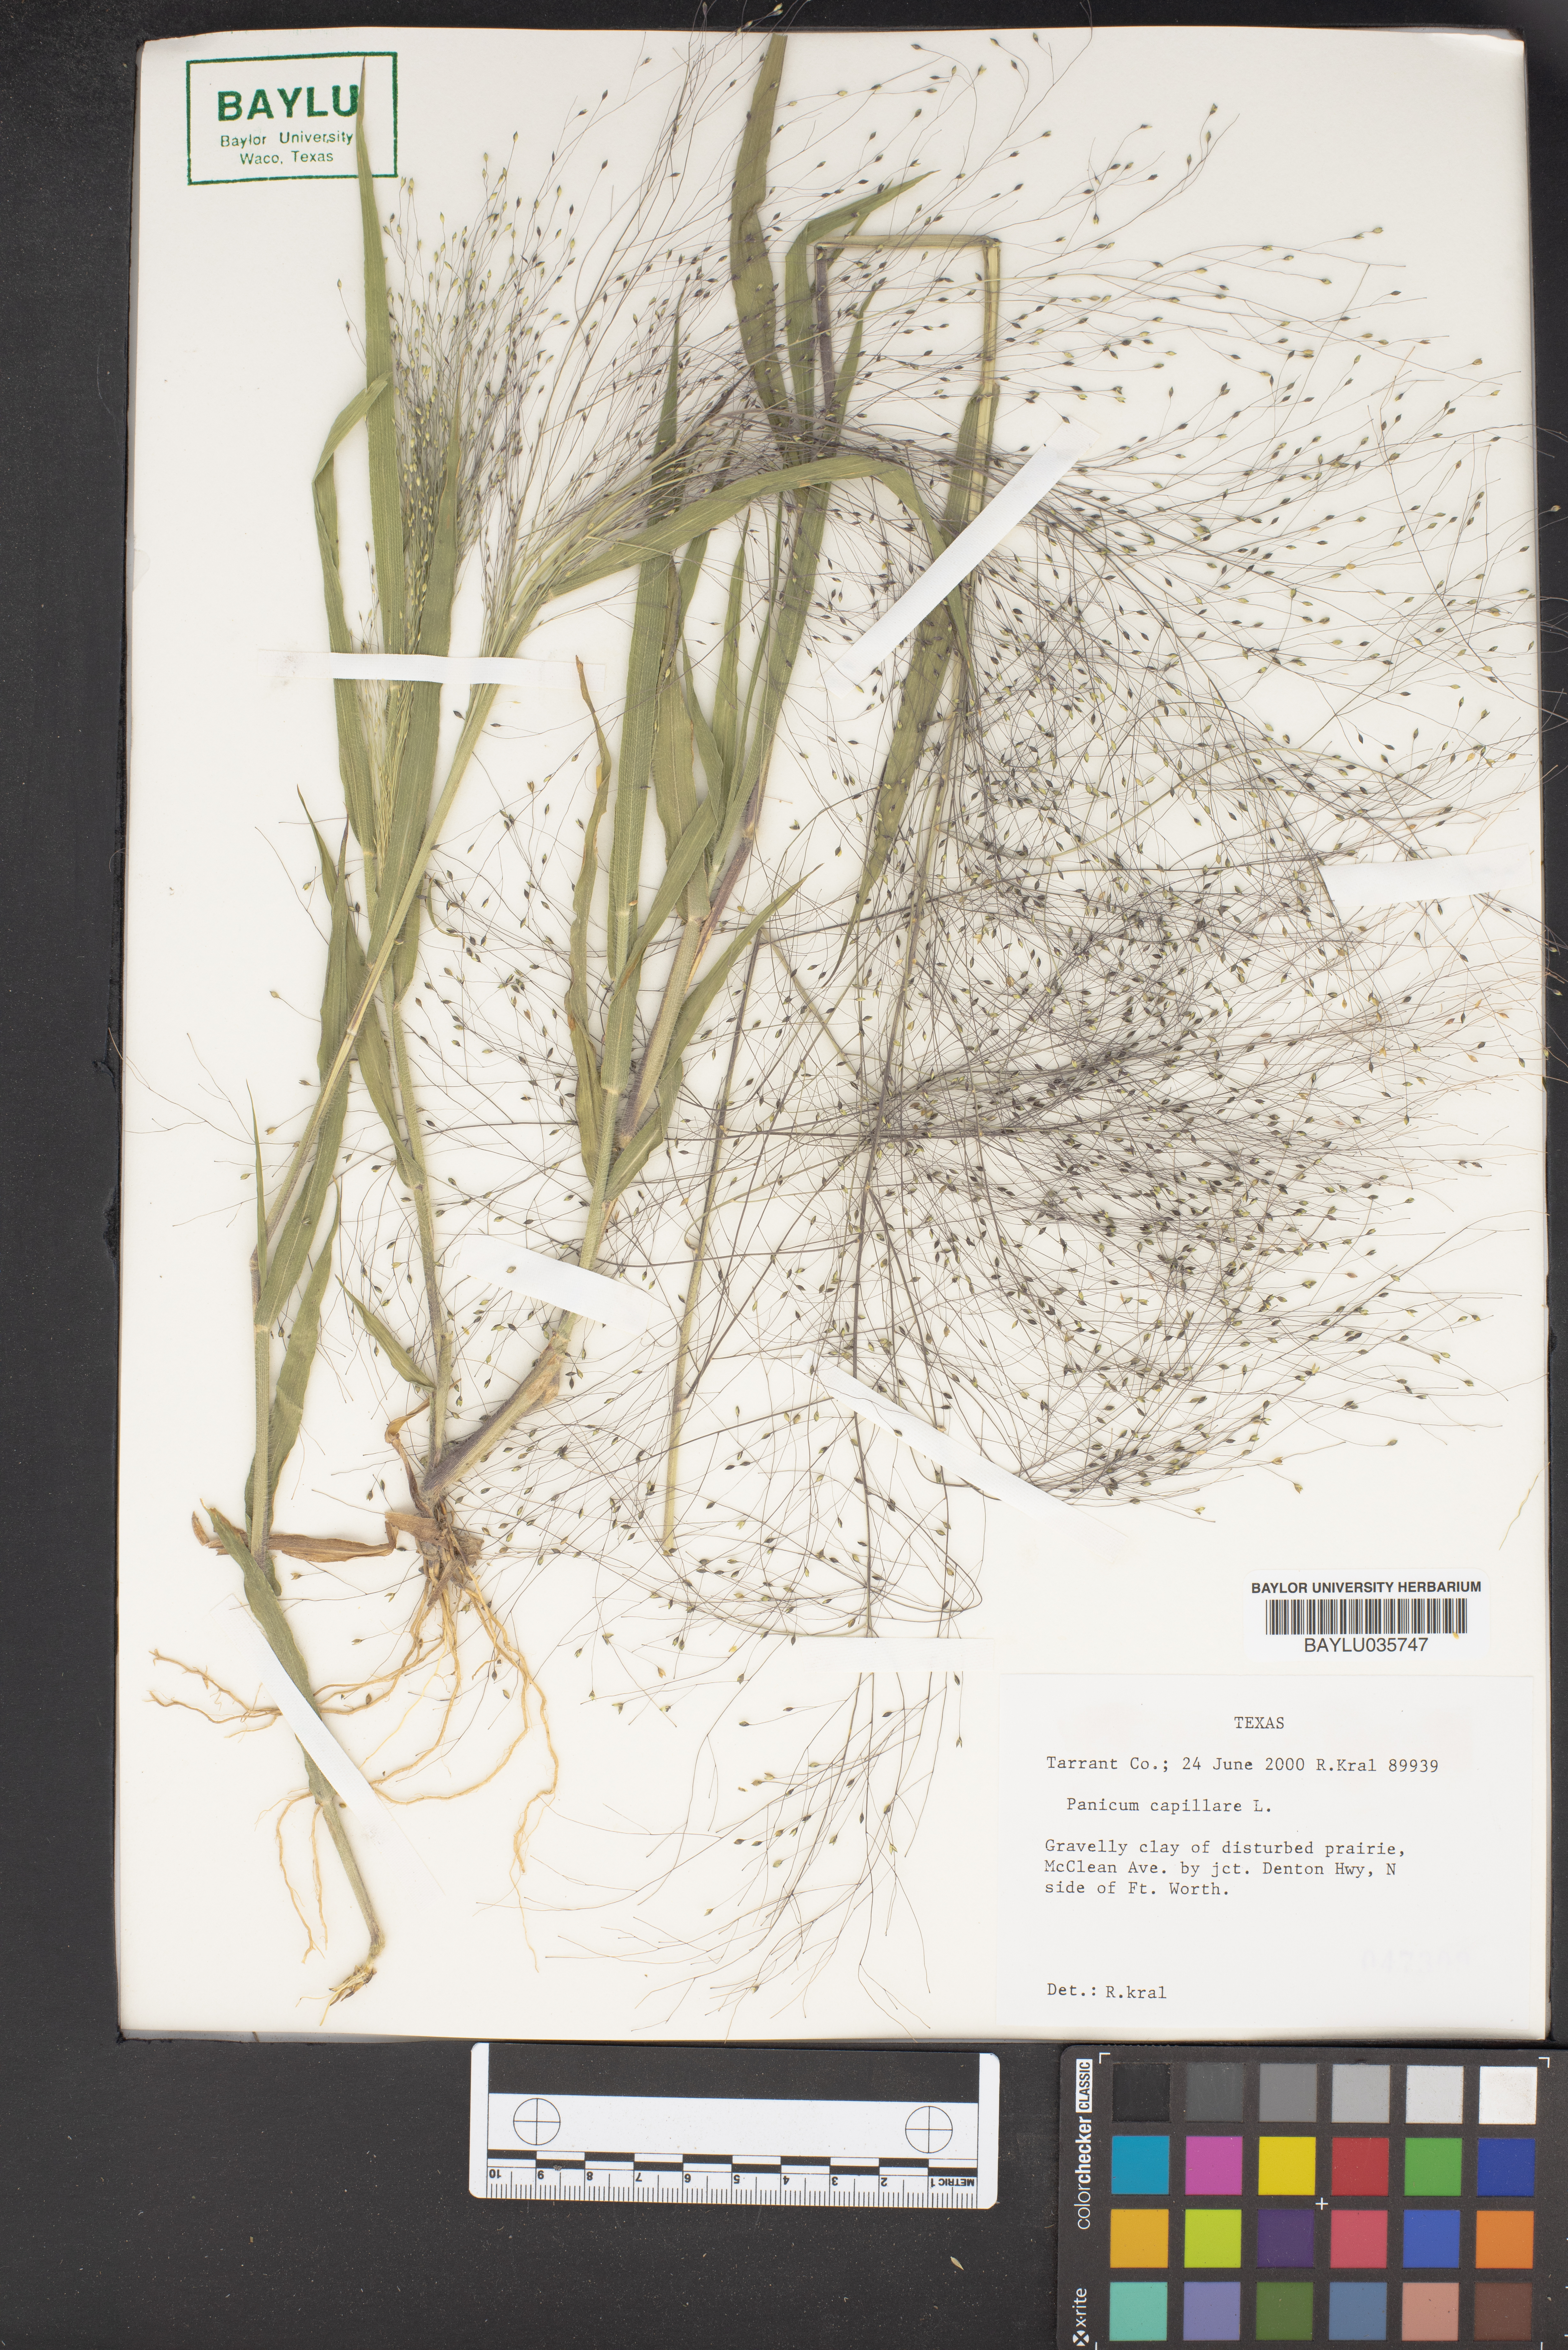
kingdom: Plantae
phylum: Tracheophyta
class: Liliopsida
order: Poales
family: Poaceae
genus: Panicum
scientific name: Panicum capillare
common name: Witch-grass
